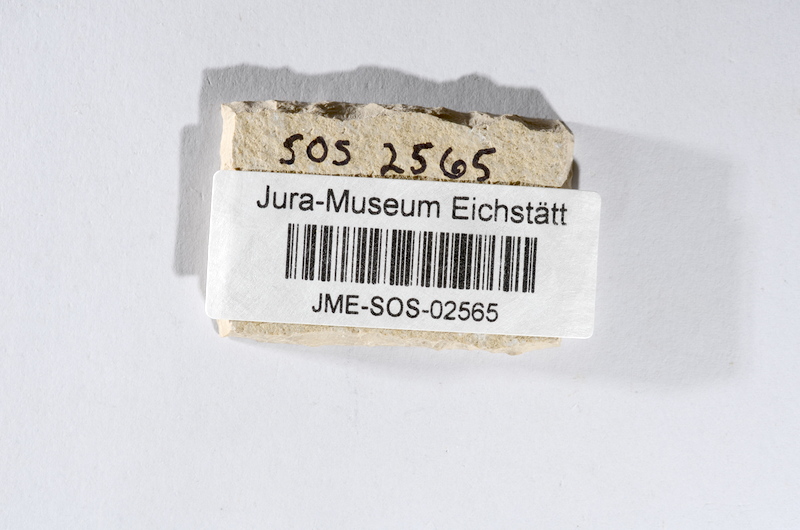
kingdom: Animalia
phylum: Chordata
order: Salmoniformes
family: Orthogonikleithridae
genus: Leptolepides
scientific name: Leptolepides sprattiformis
